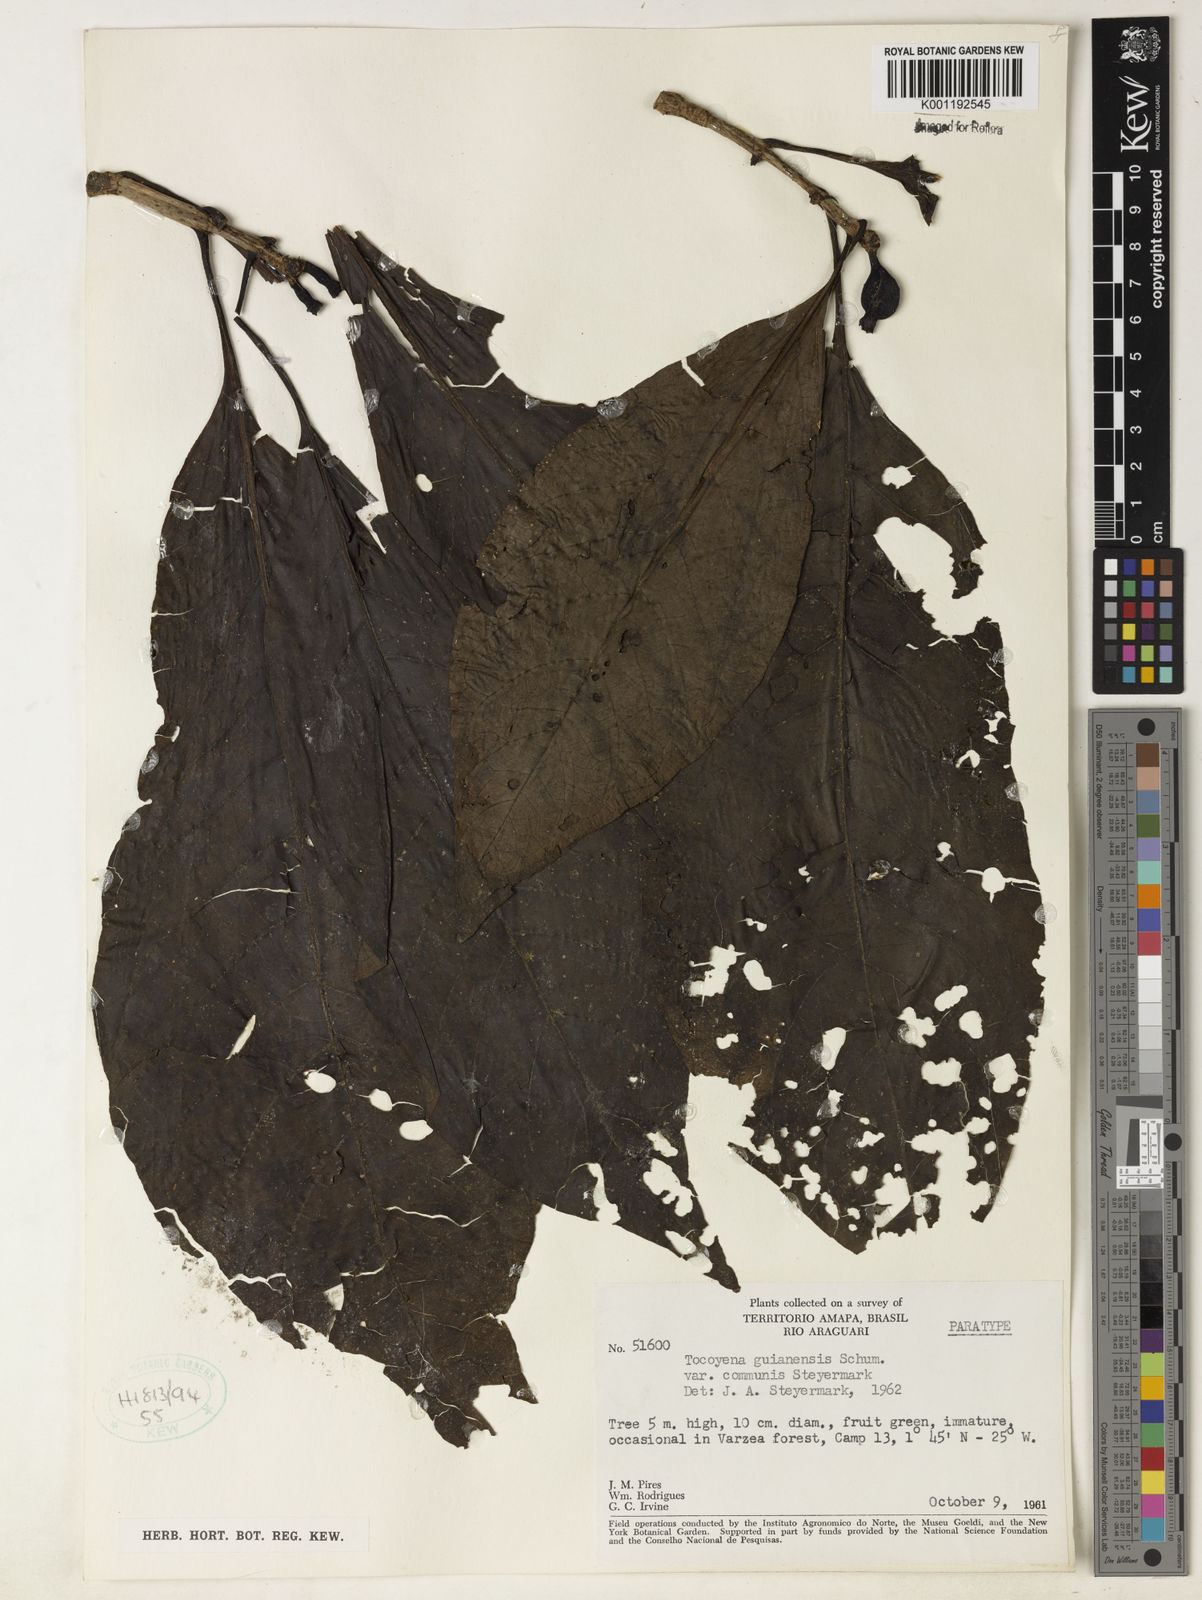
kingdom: Plantae
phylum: Tracheophyta
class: Magnoliopsida
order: Gentianales
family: Rubiaceae
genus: Tocoyena
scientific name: Tocoyena guianensis
